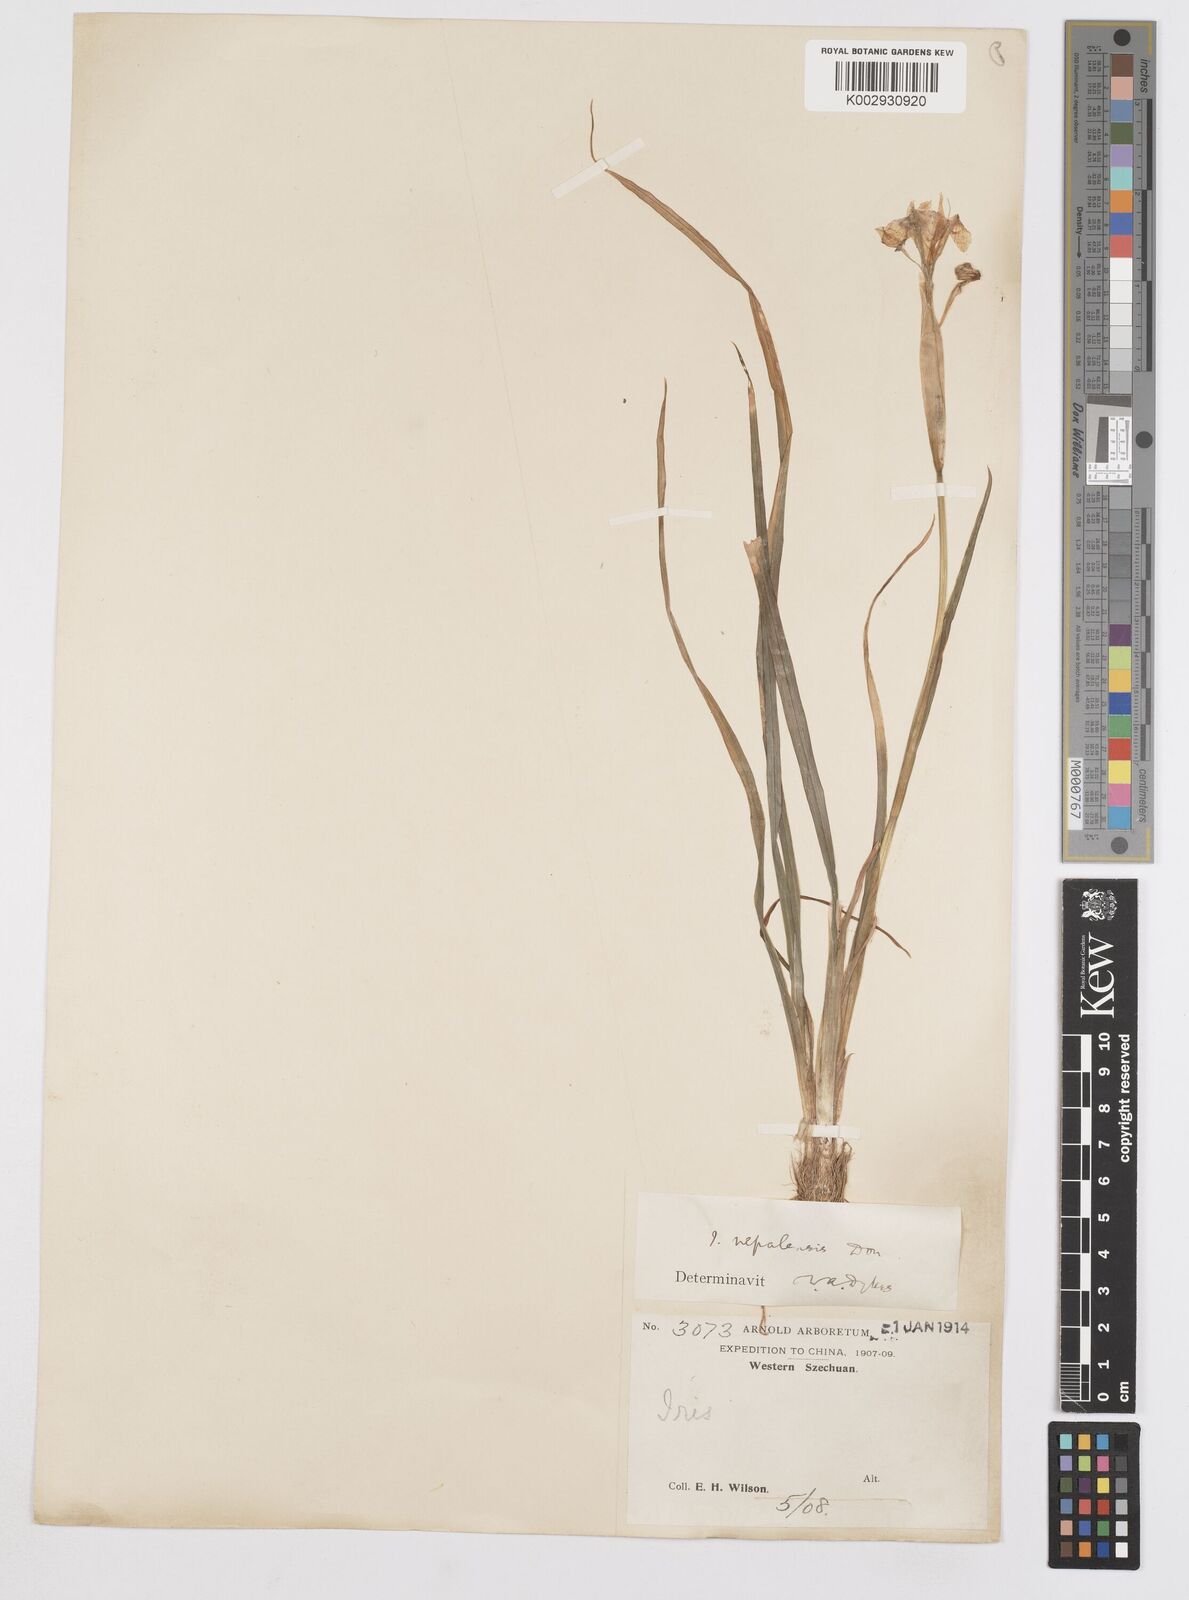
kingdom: Plantae
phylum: Tracheophyta
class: Liliopsida
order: Asparagales
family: Iridaceae
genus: Iris
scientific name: Iris decora
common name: Nepal iris
